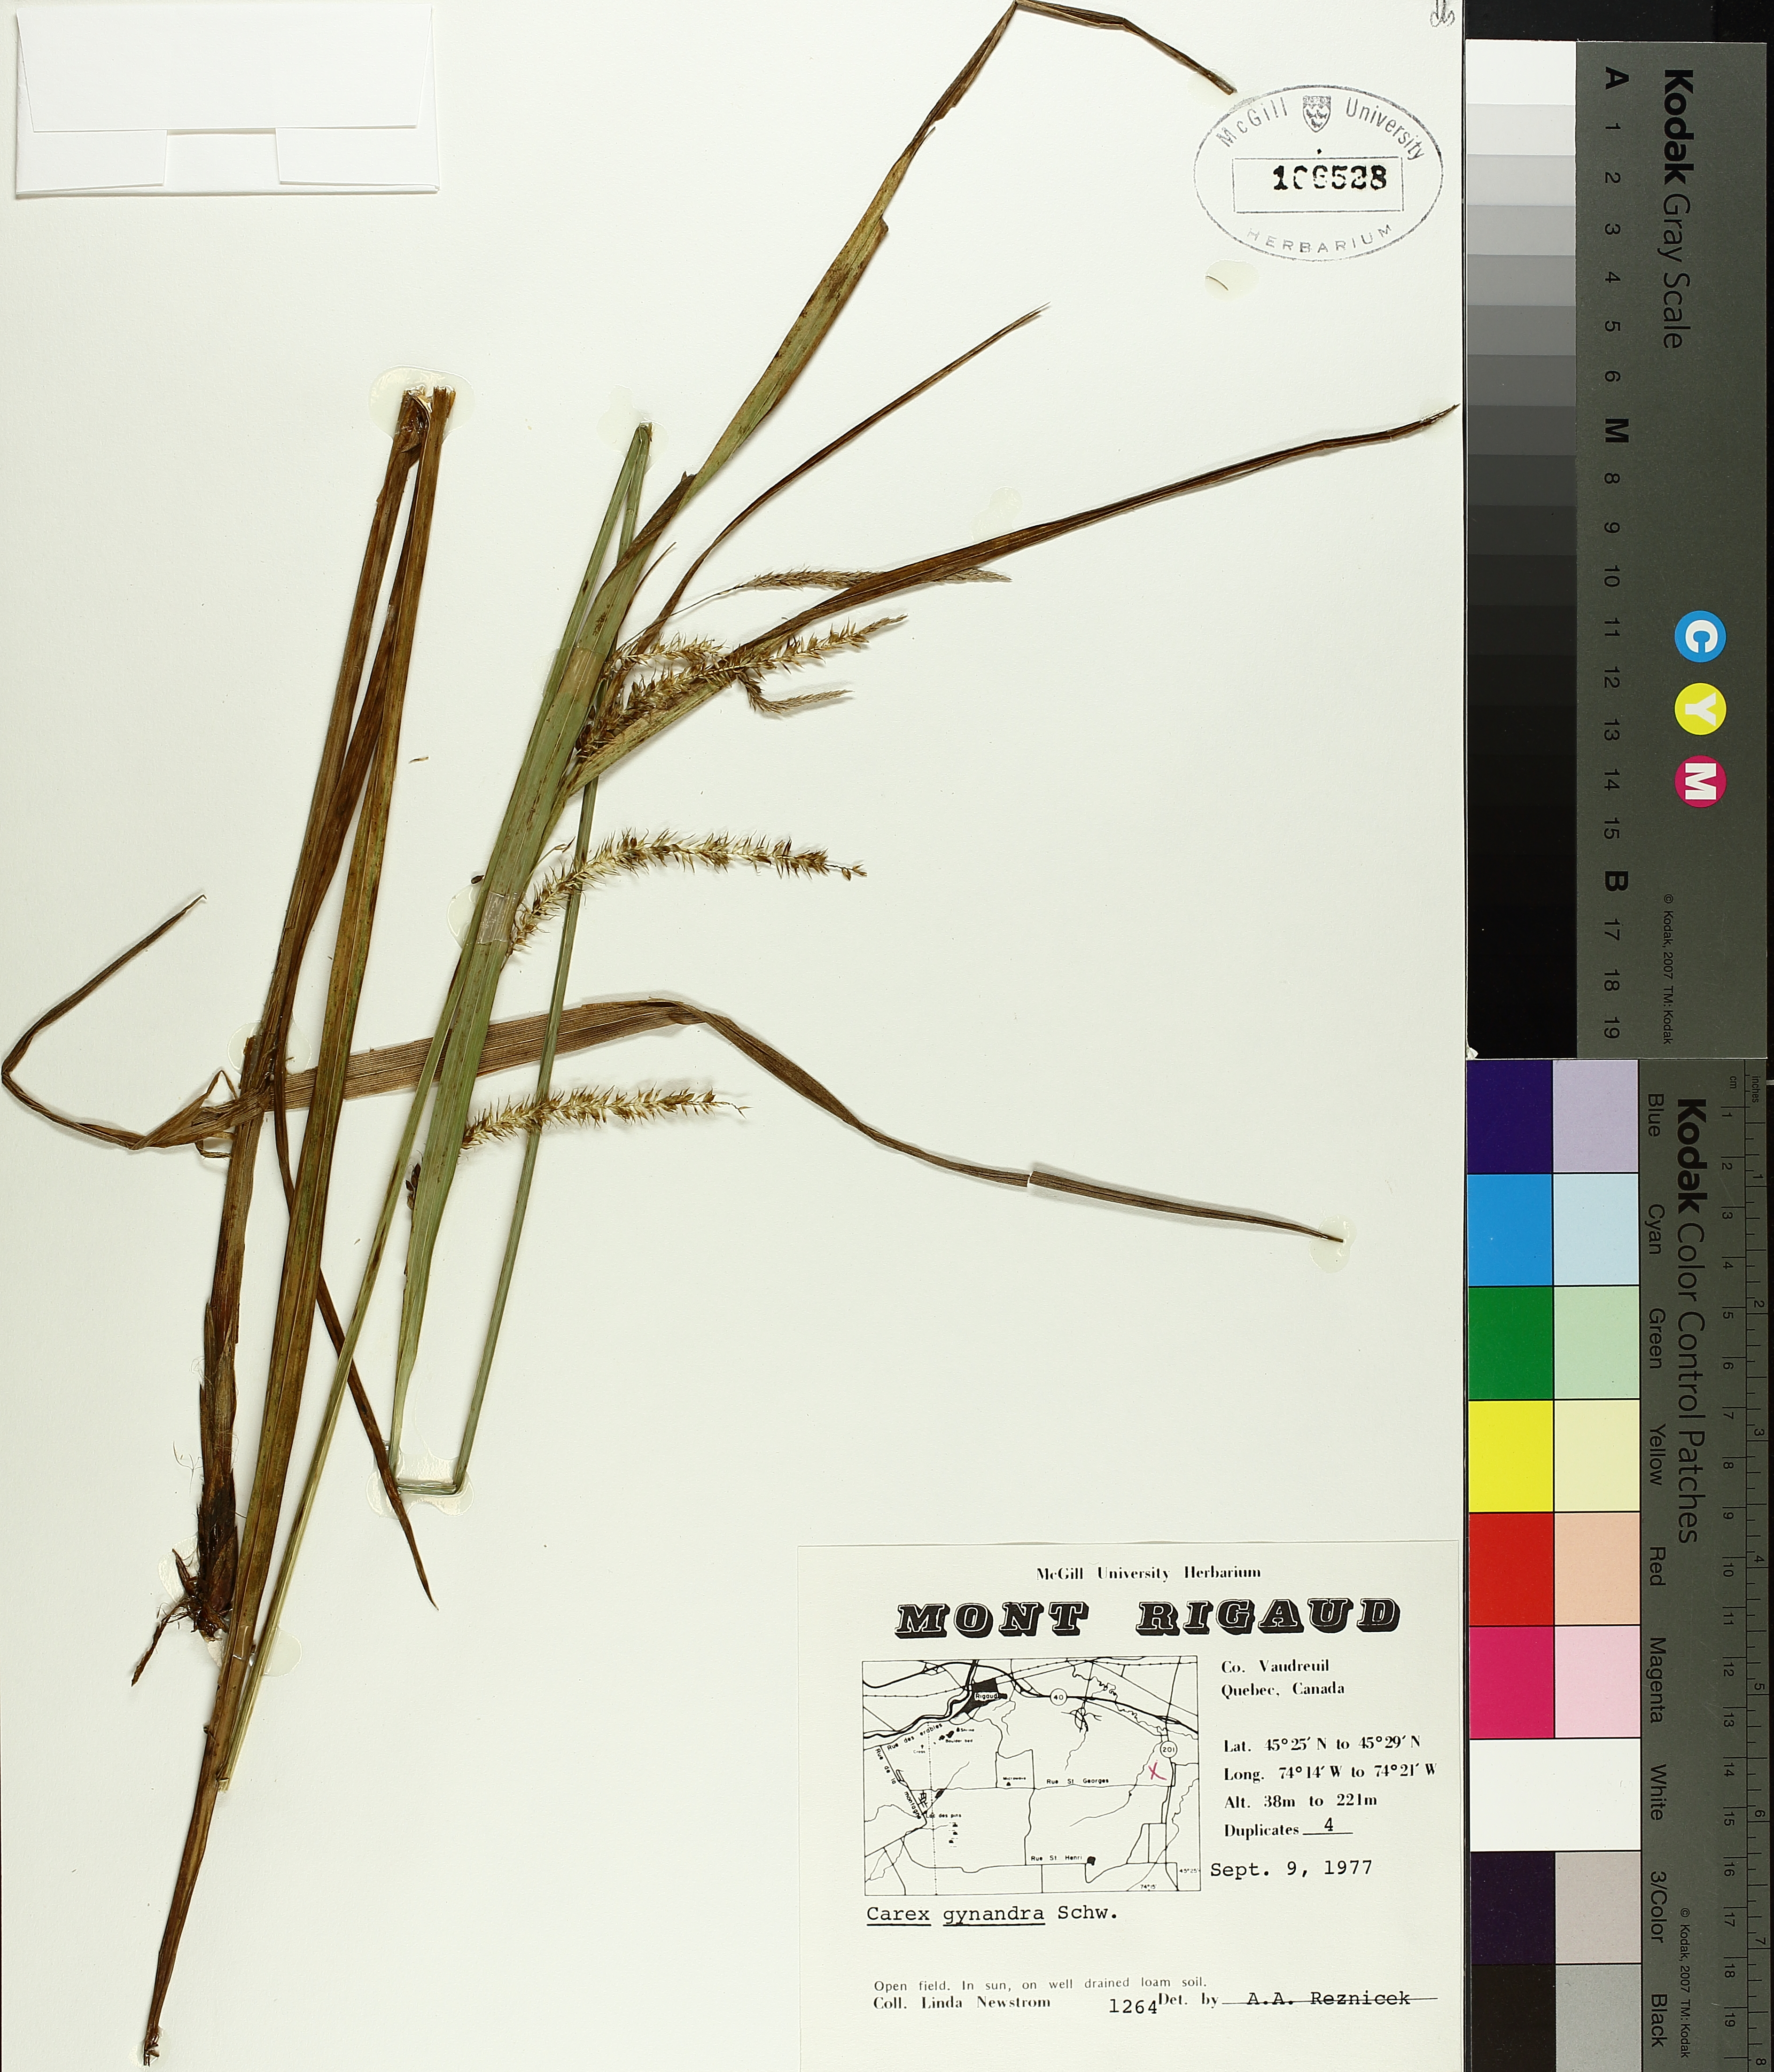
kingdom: Plantae
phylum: Tracheophyta
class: Liliopsida
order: Poales
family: Cyperaceae
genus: Carex
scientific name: Carex gynandra
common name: Nodding sedge
